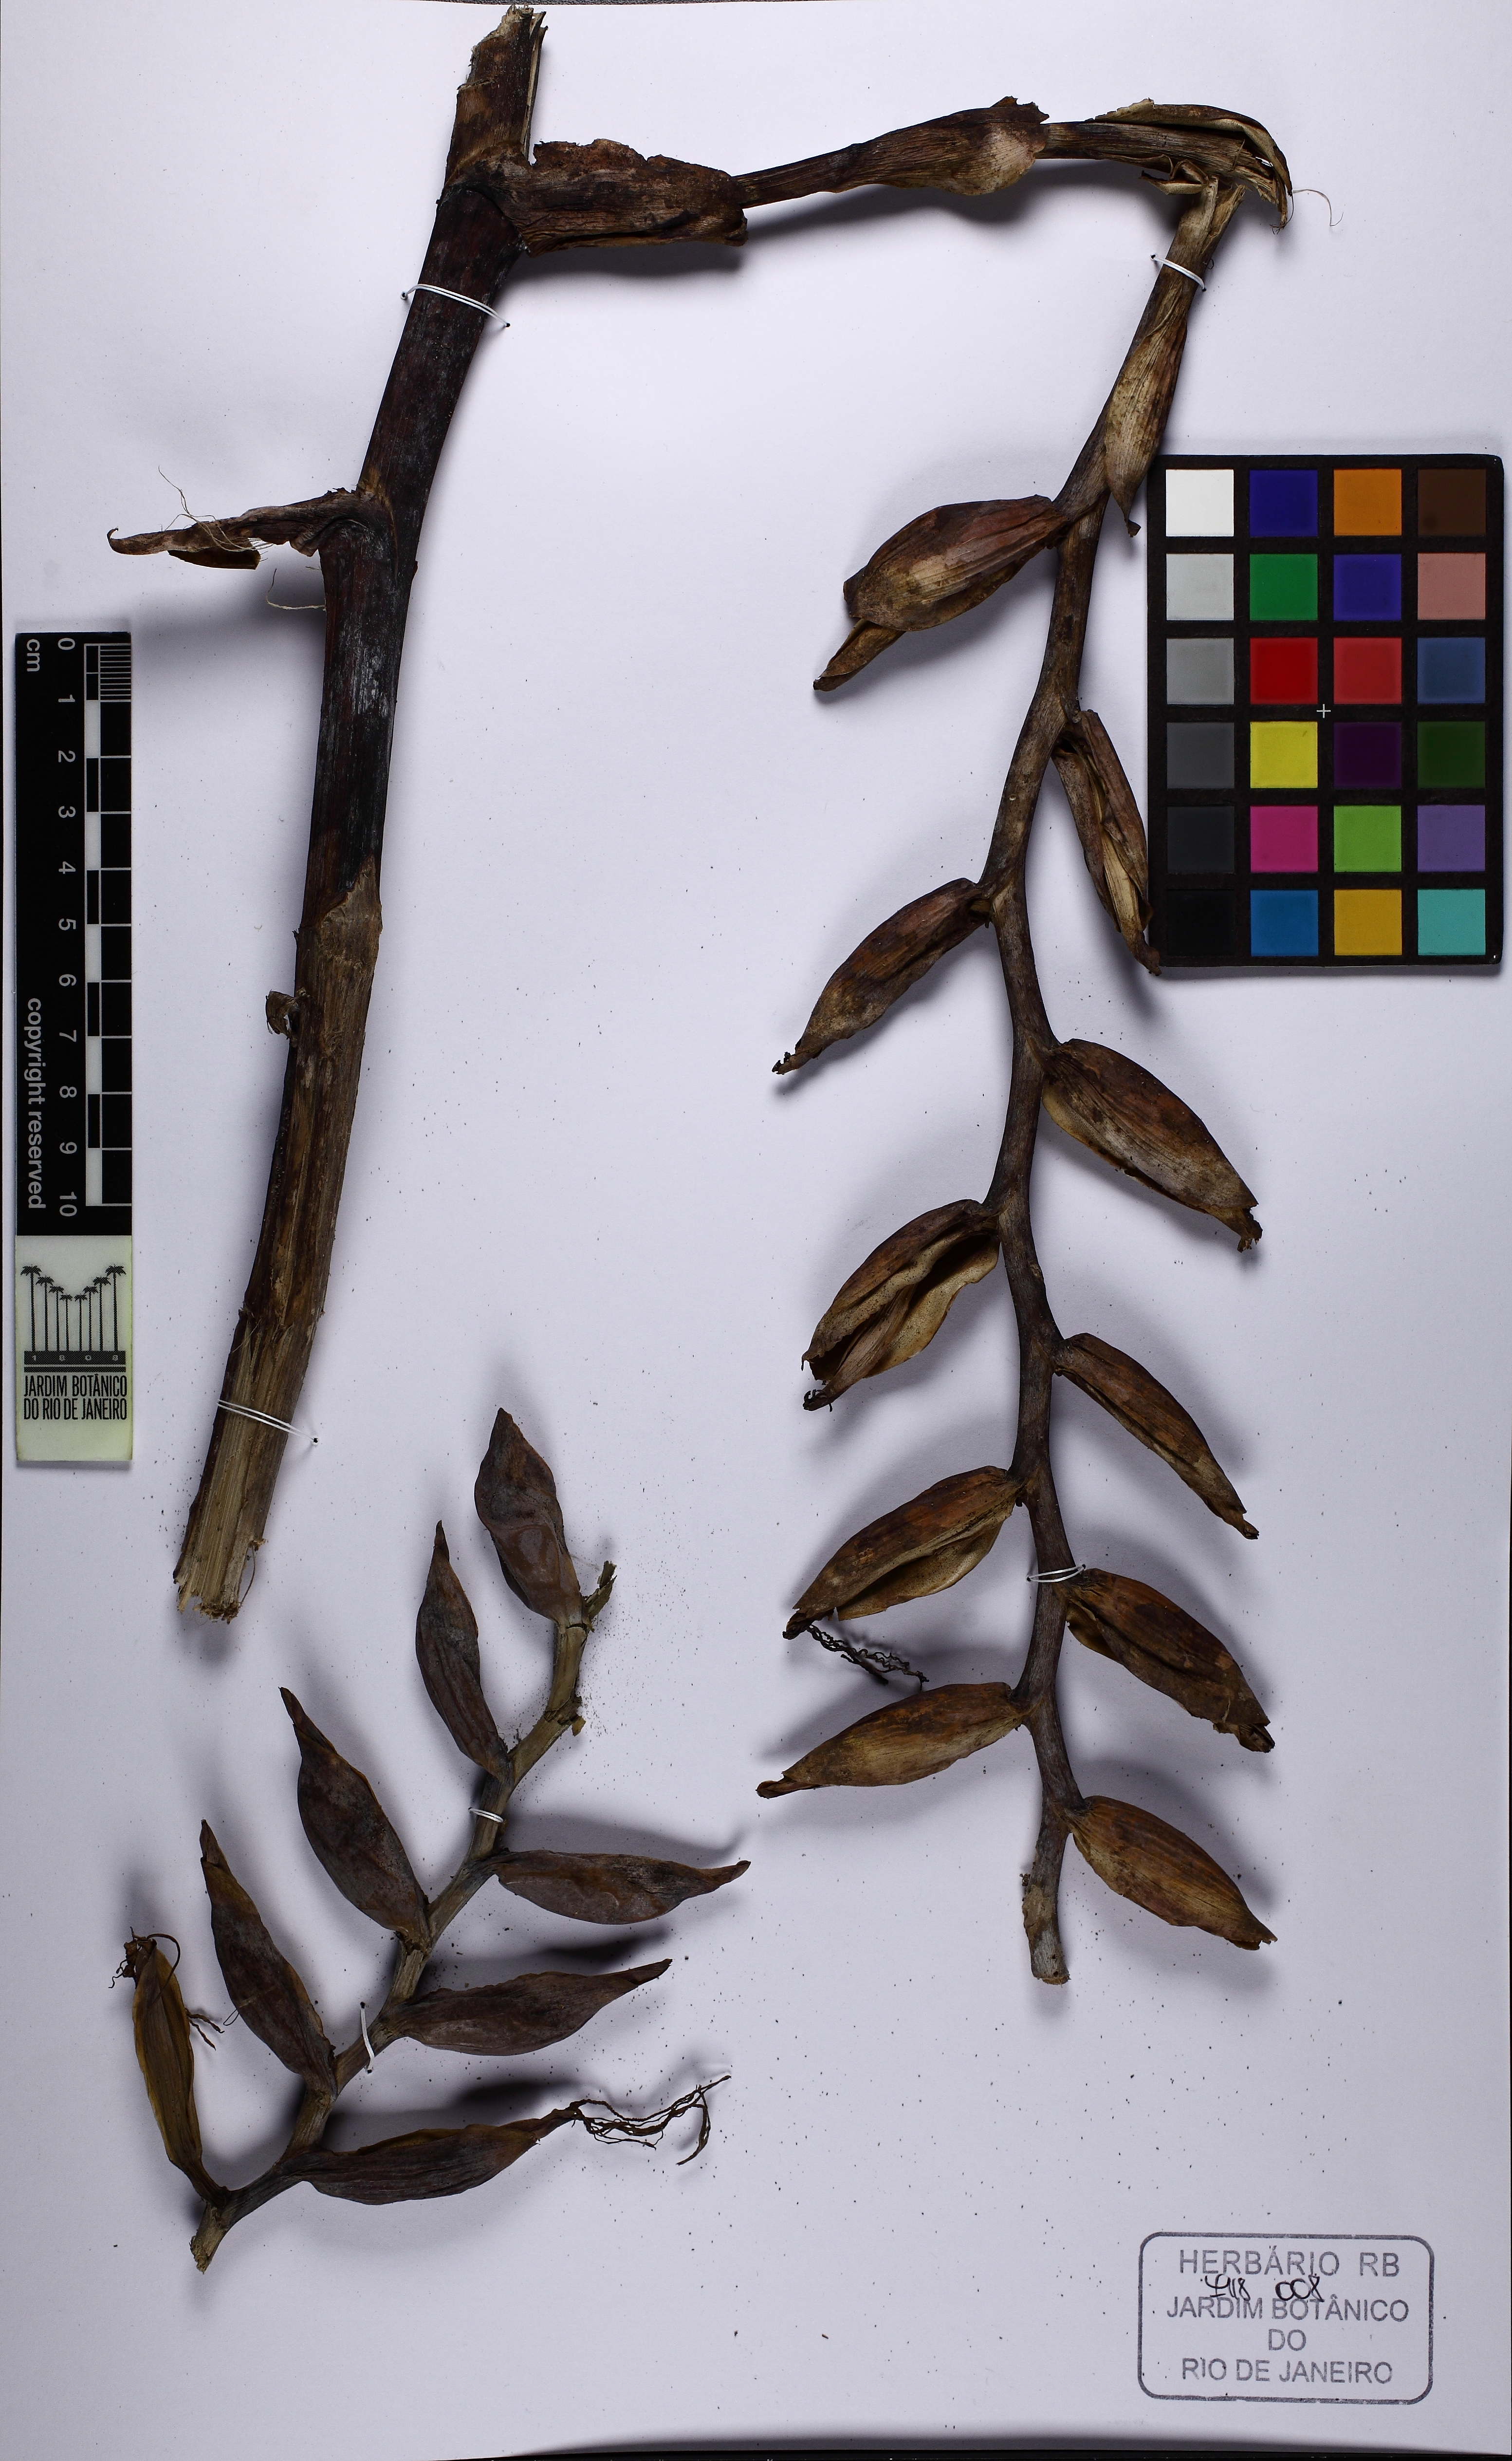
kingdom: Plantae
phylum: Tracheophyta
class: Liliopsida
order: Poales
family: Bromeliaceae
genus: Alcantarea
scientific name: Alcantarea extensa
